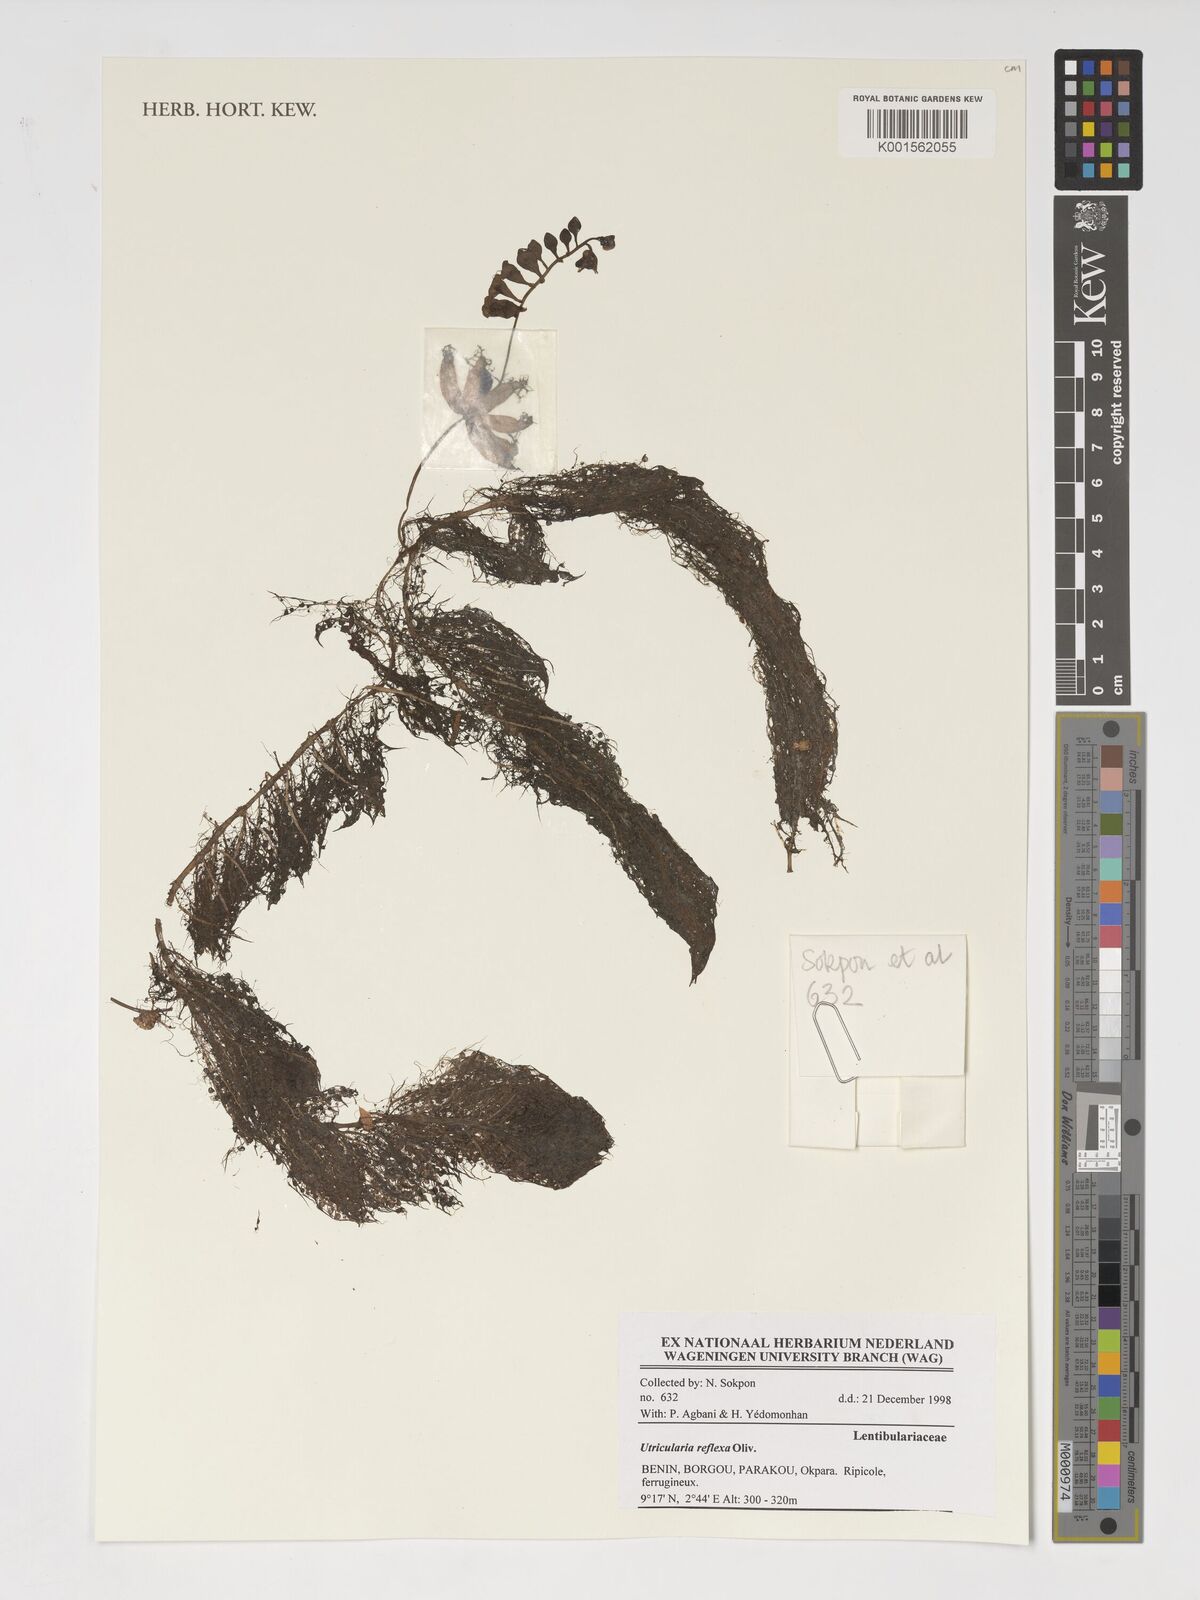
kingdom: Plantae
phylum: Tracheophyta
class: Magnoliopsida
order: Lamiales
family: Lentibulariaceae
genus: Utricularia
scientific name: Utricularia reflexa
